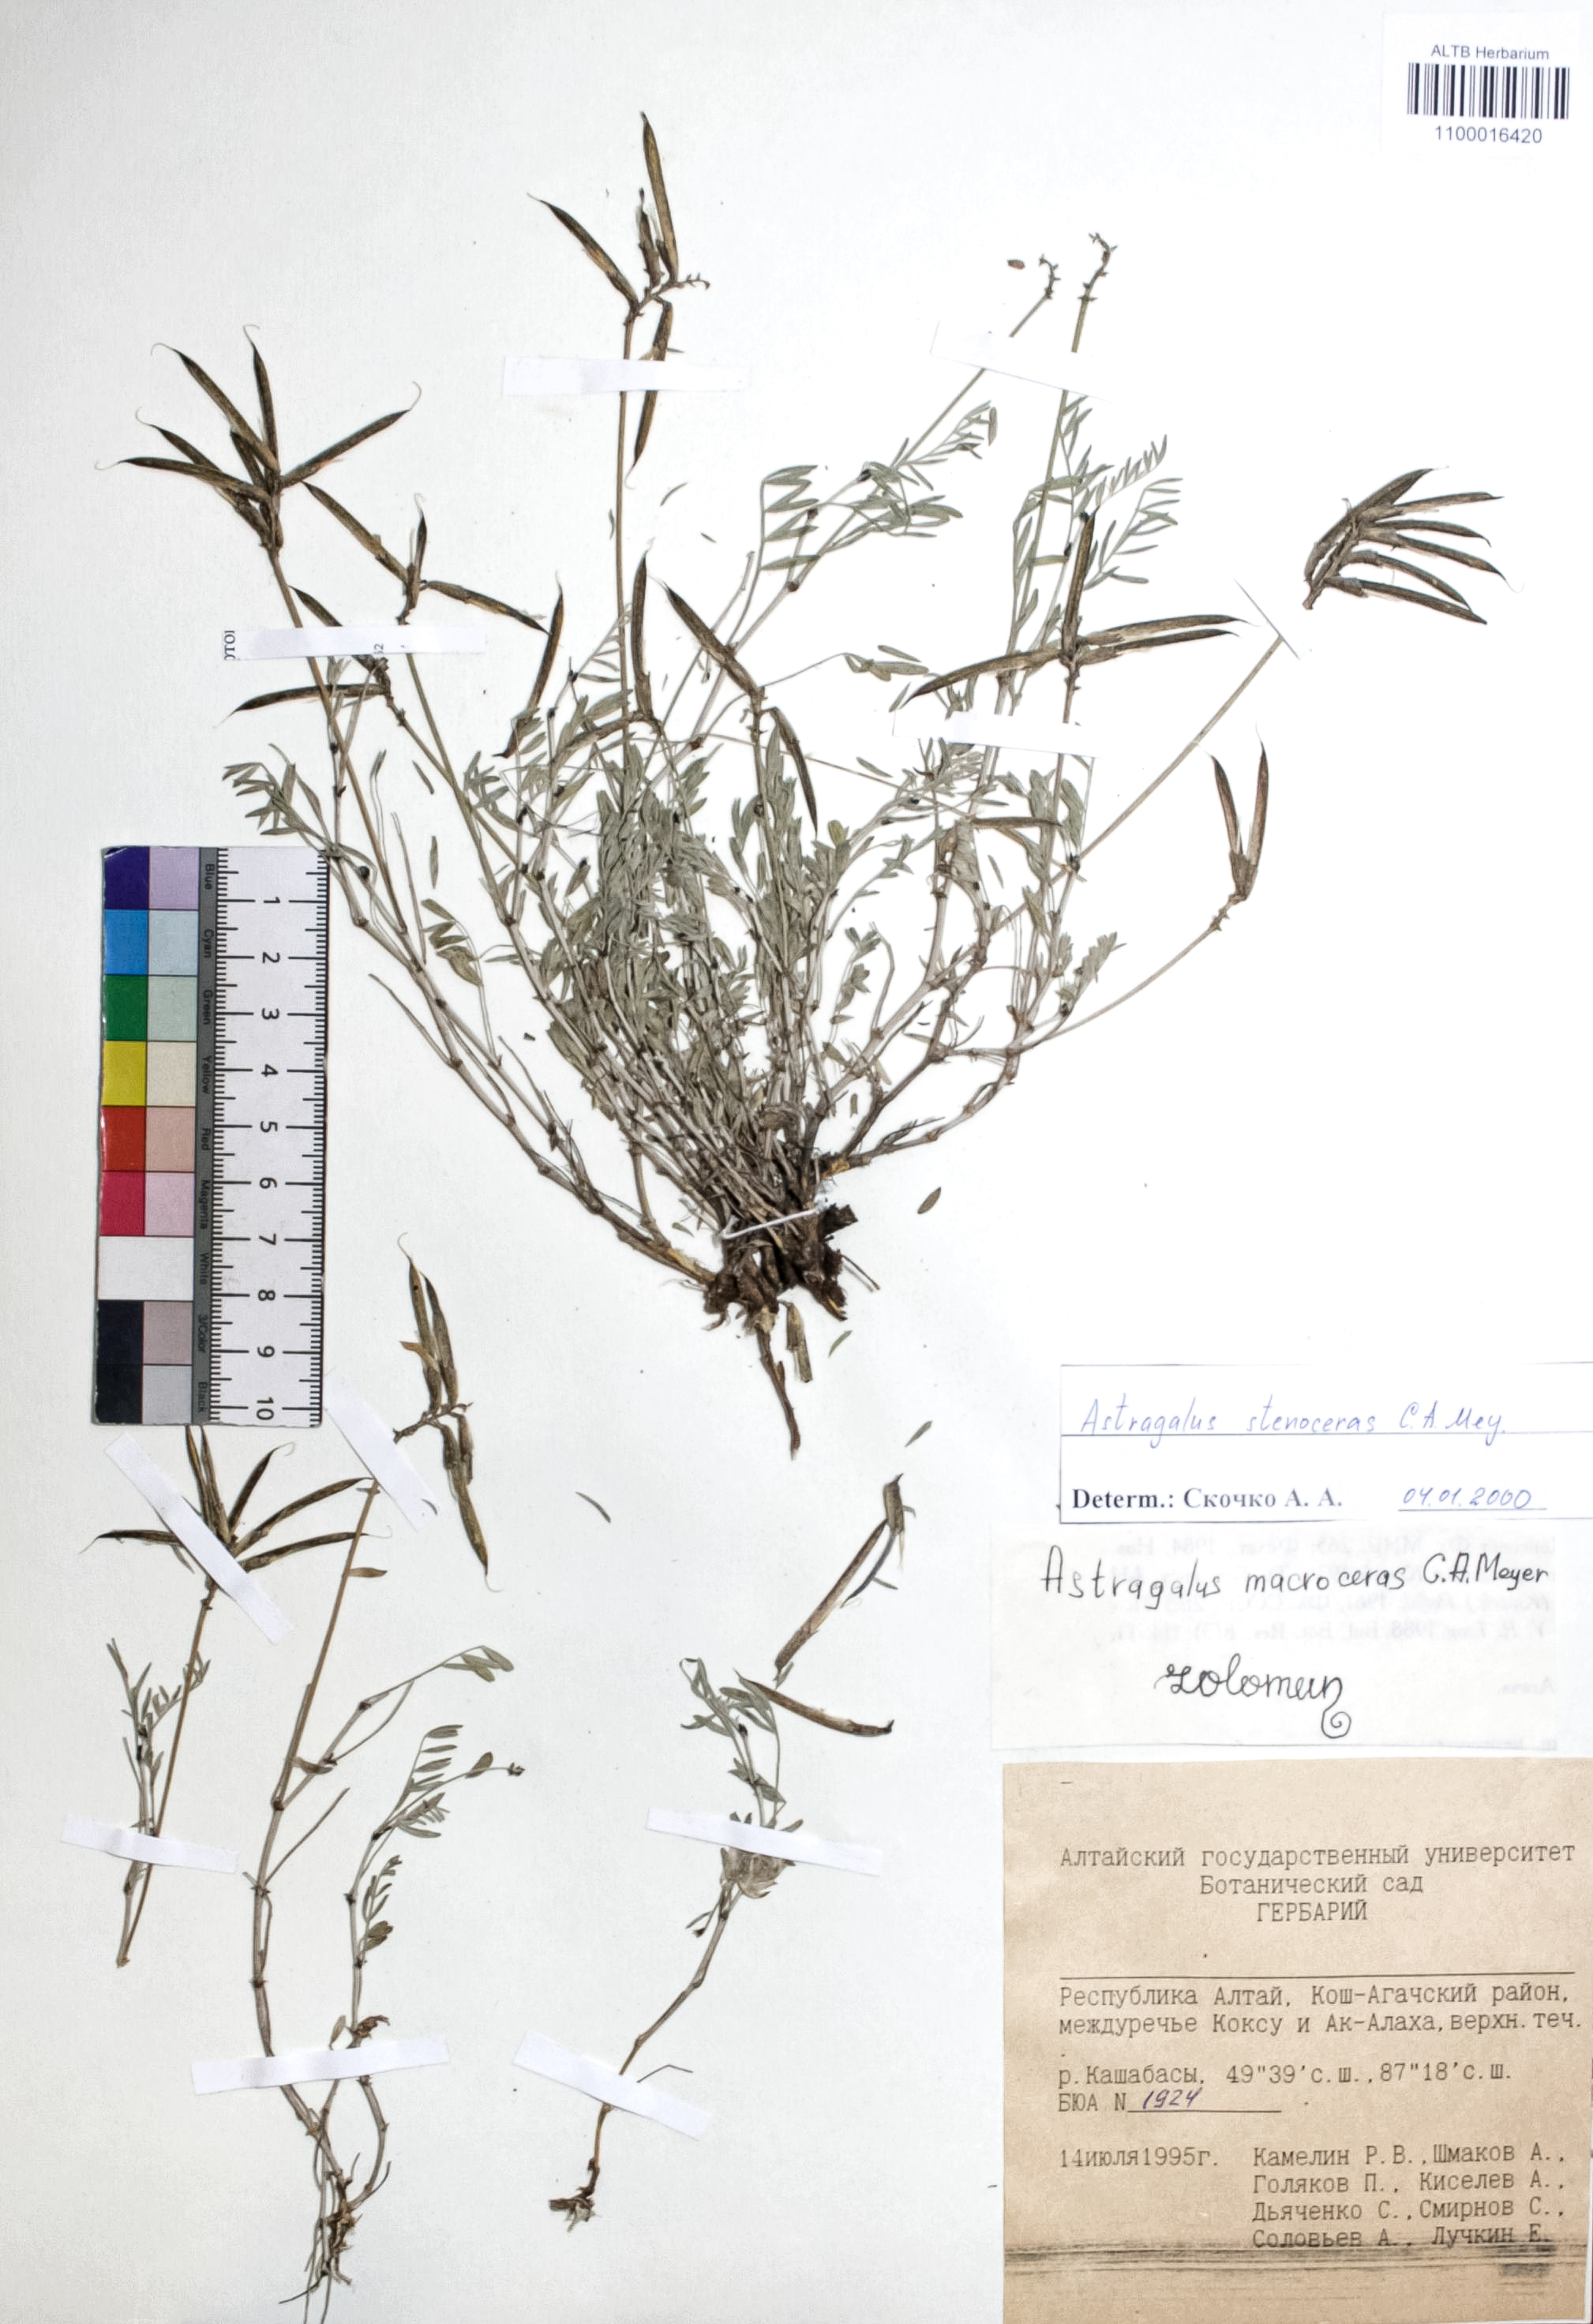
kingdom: Plantae
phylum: Tracheophyta
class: Magnoliopsida
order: Fabales
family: Fabaceae
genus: Astragalus
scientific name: Astragalus stenoceras
